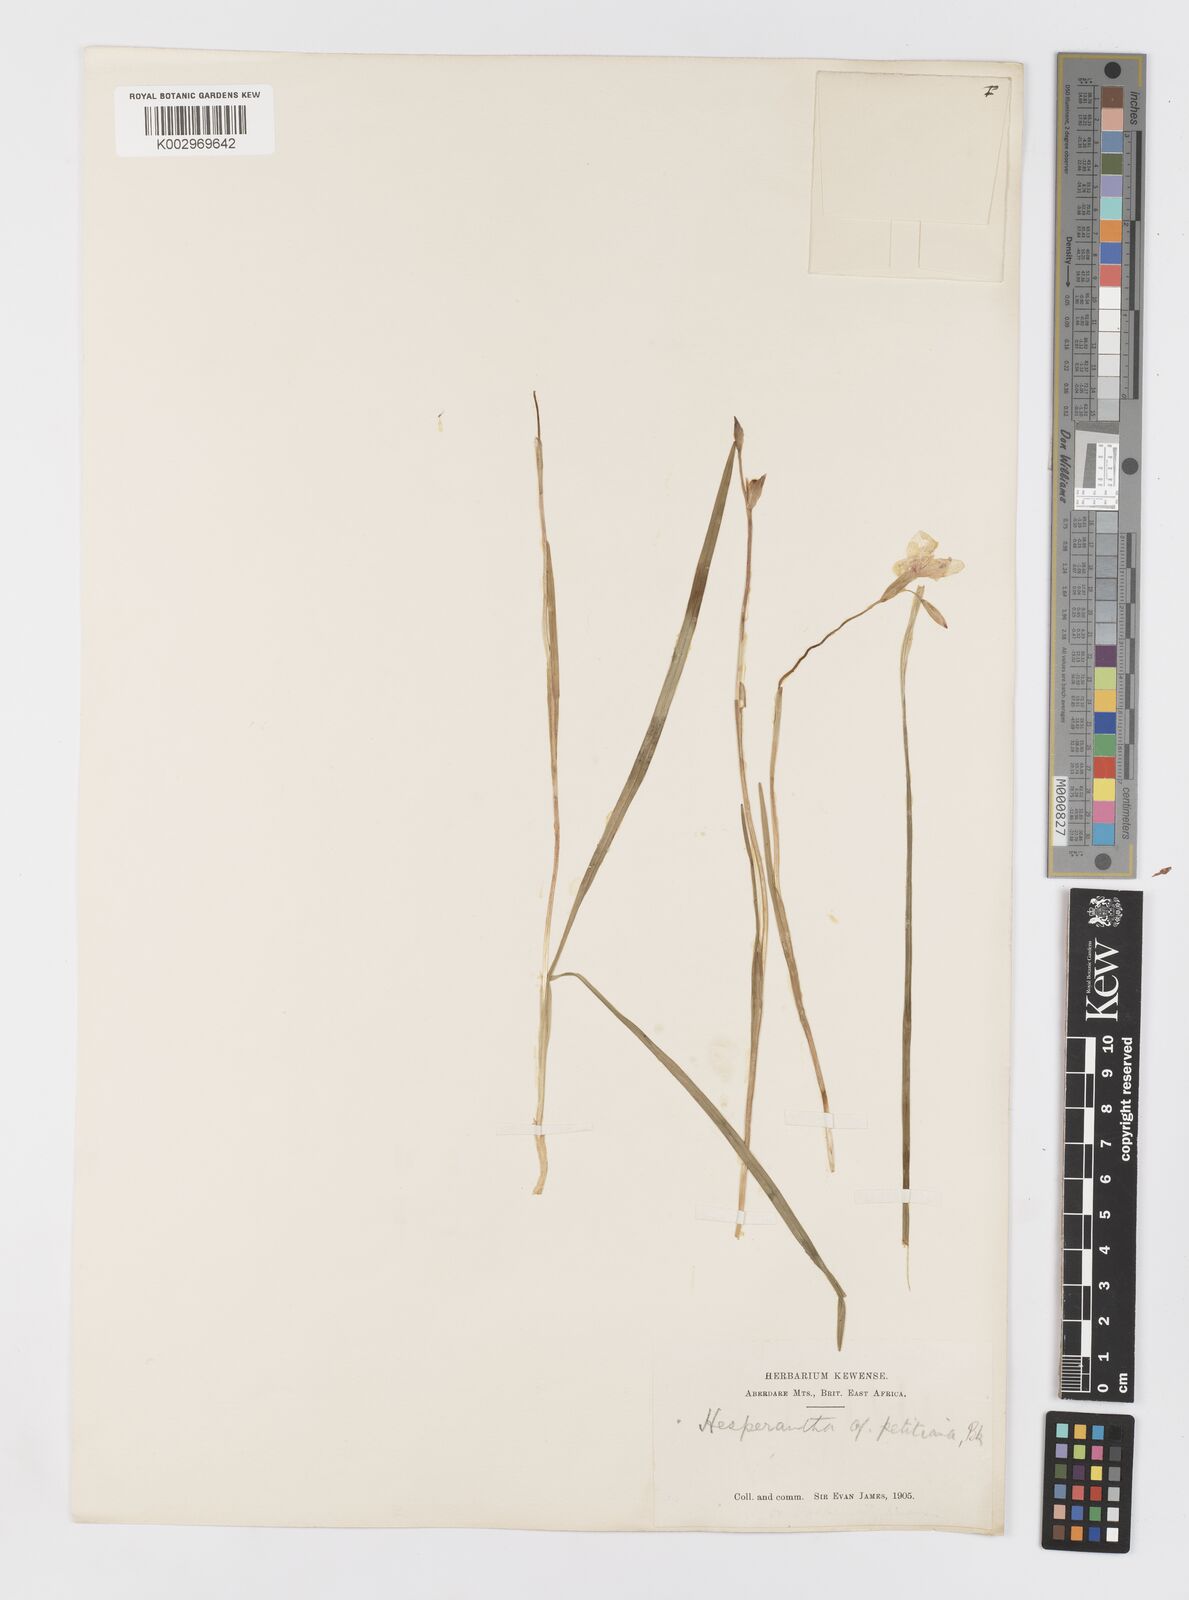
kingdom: Plantae
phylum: Tracheophyta
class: Liliopsida
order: Asparagales
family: Iridaceae
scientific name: Iridaceae
